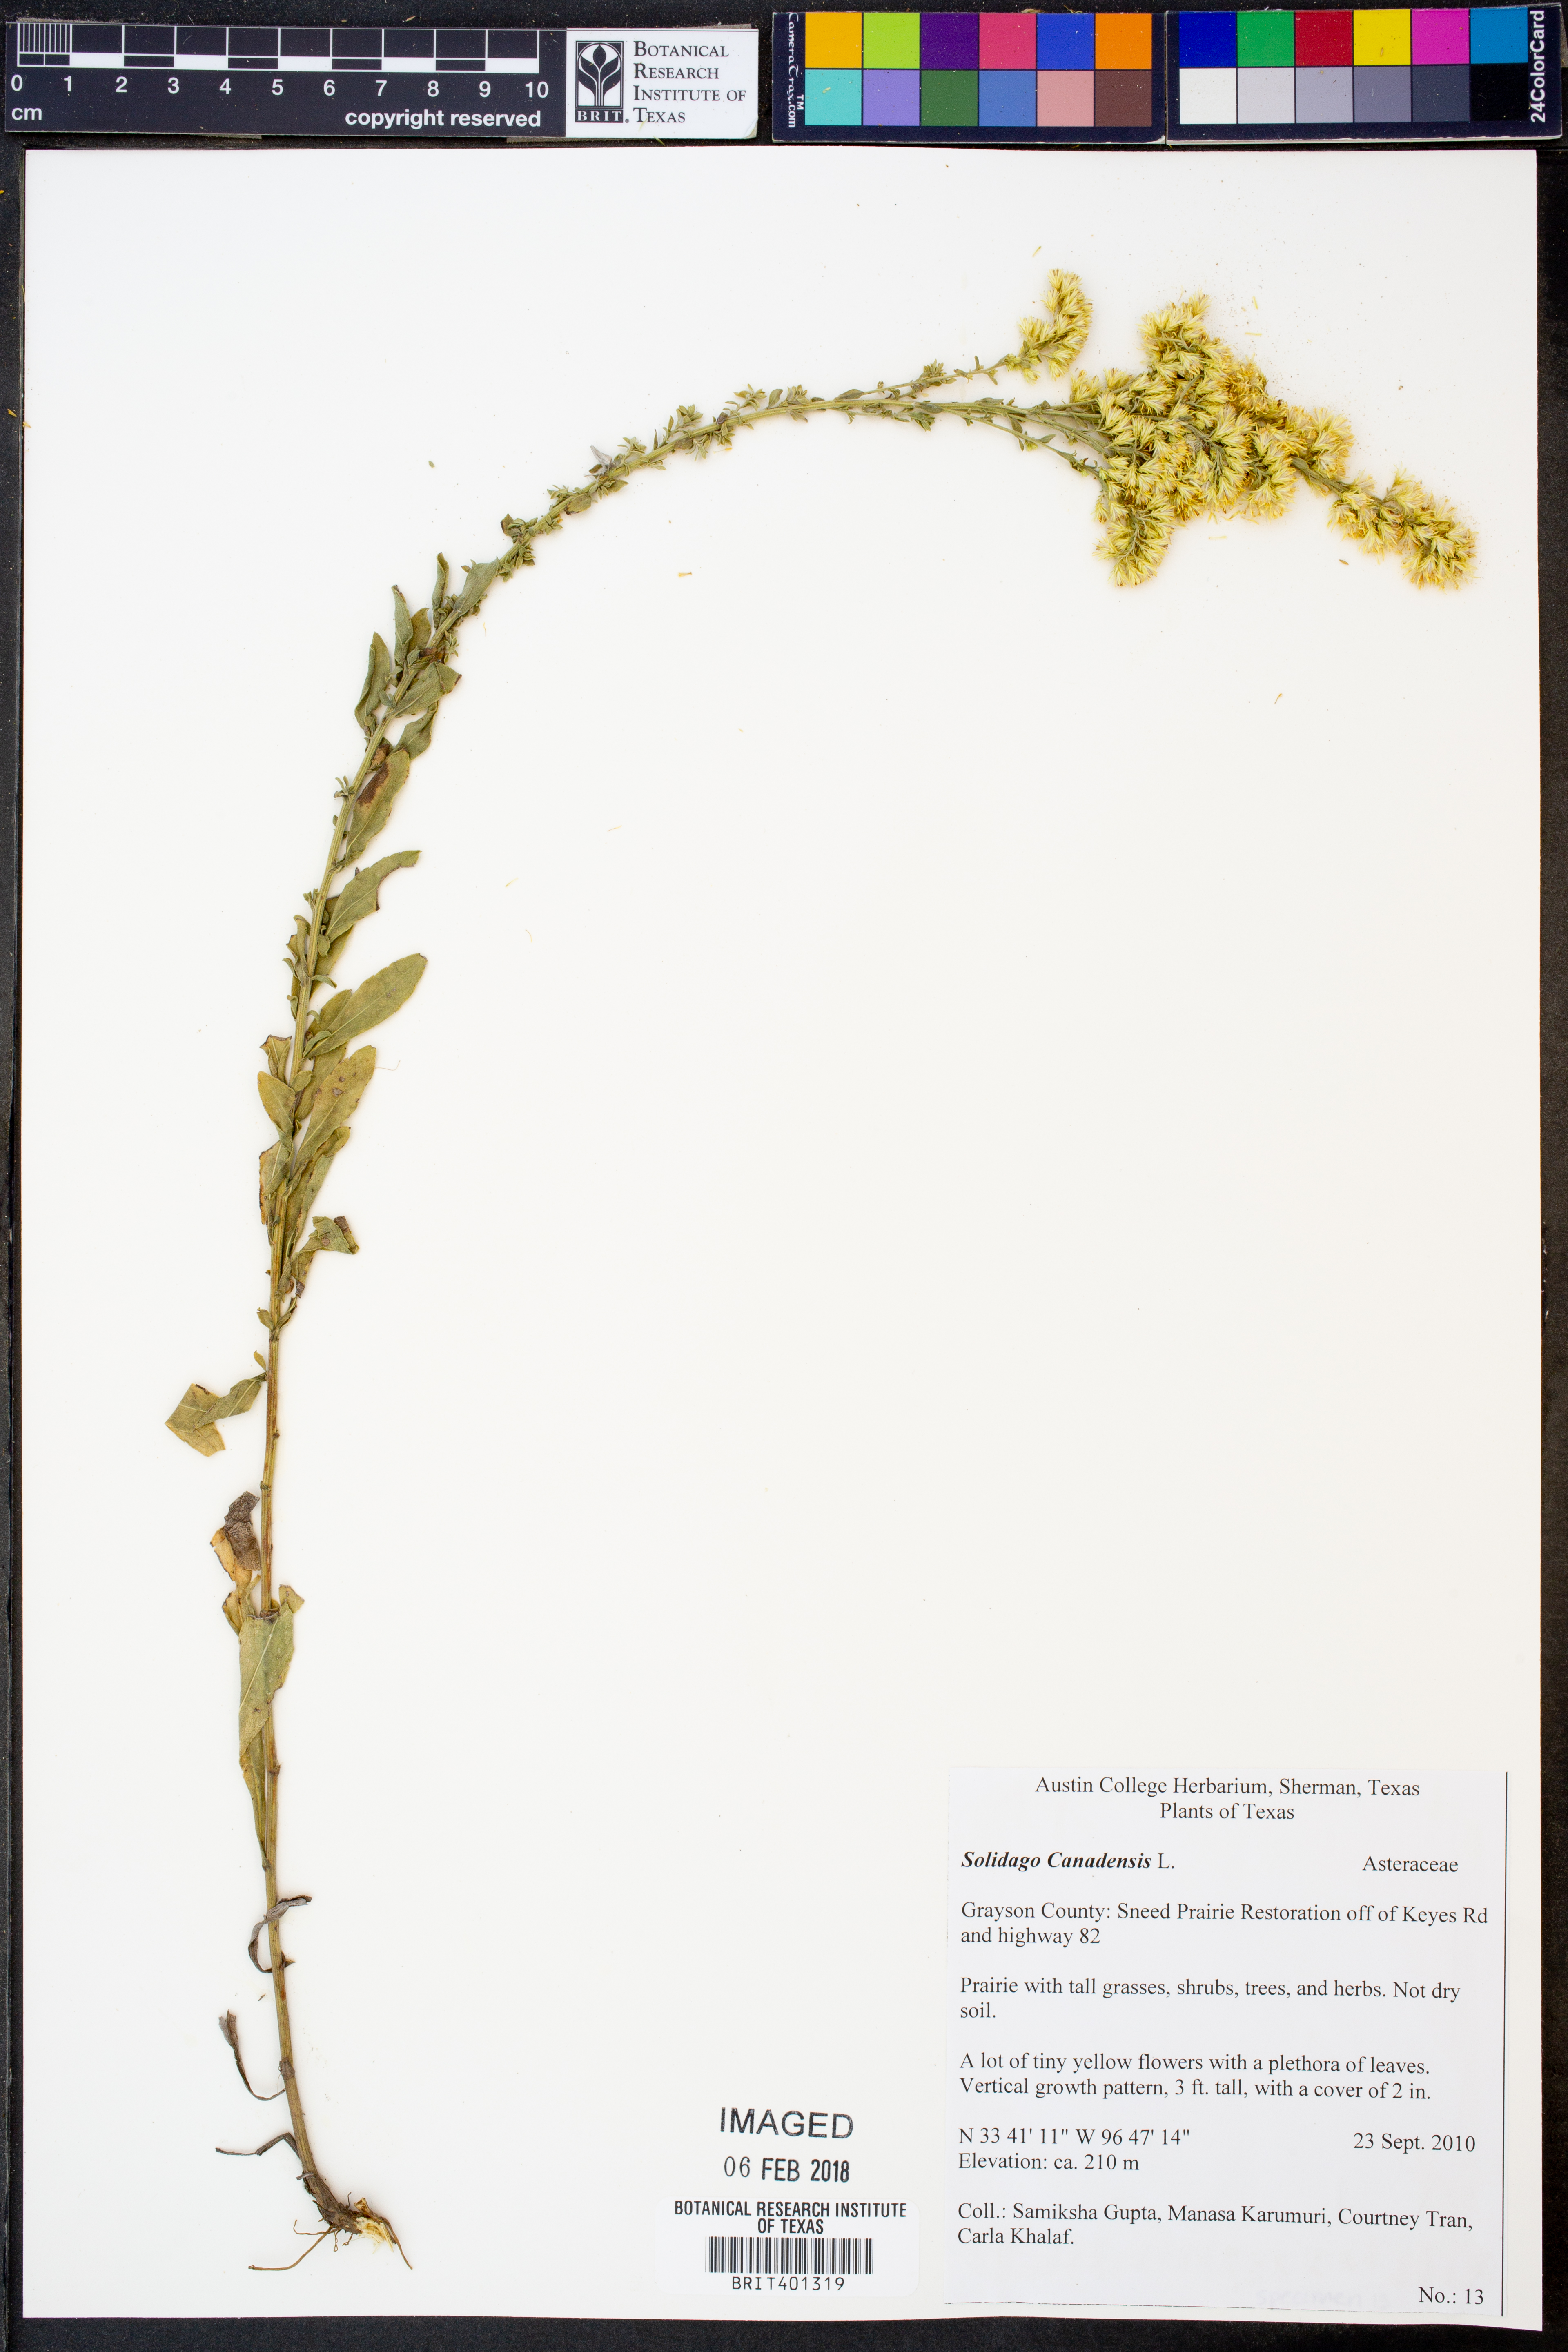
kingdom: Plantae
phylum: Tracheophyta
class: Magnoliopsida
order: Asterales
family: Asteraceae
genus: Solidago
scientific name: Solidago canadensis
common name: Canada goldenrod
